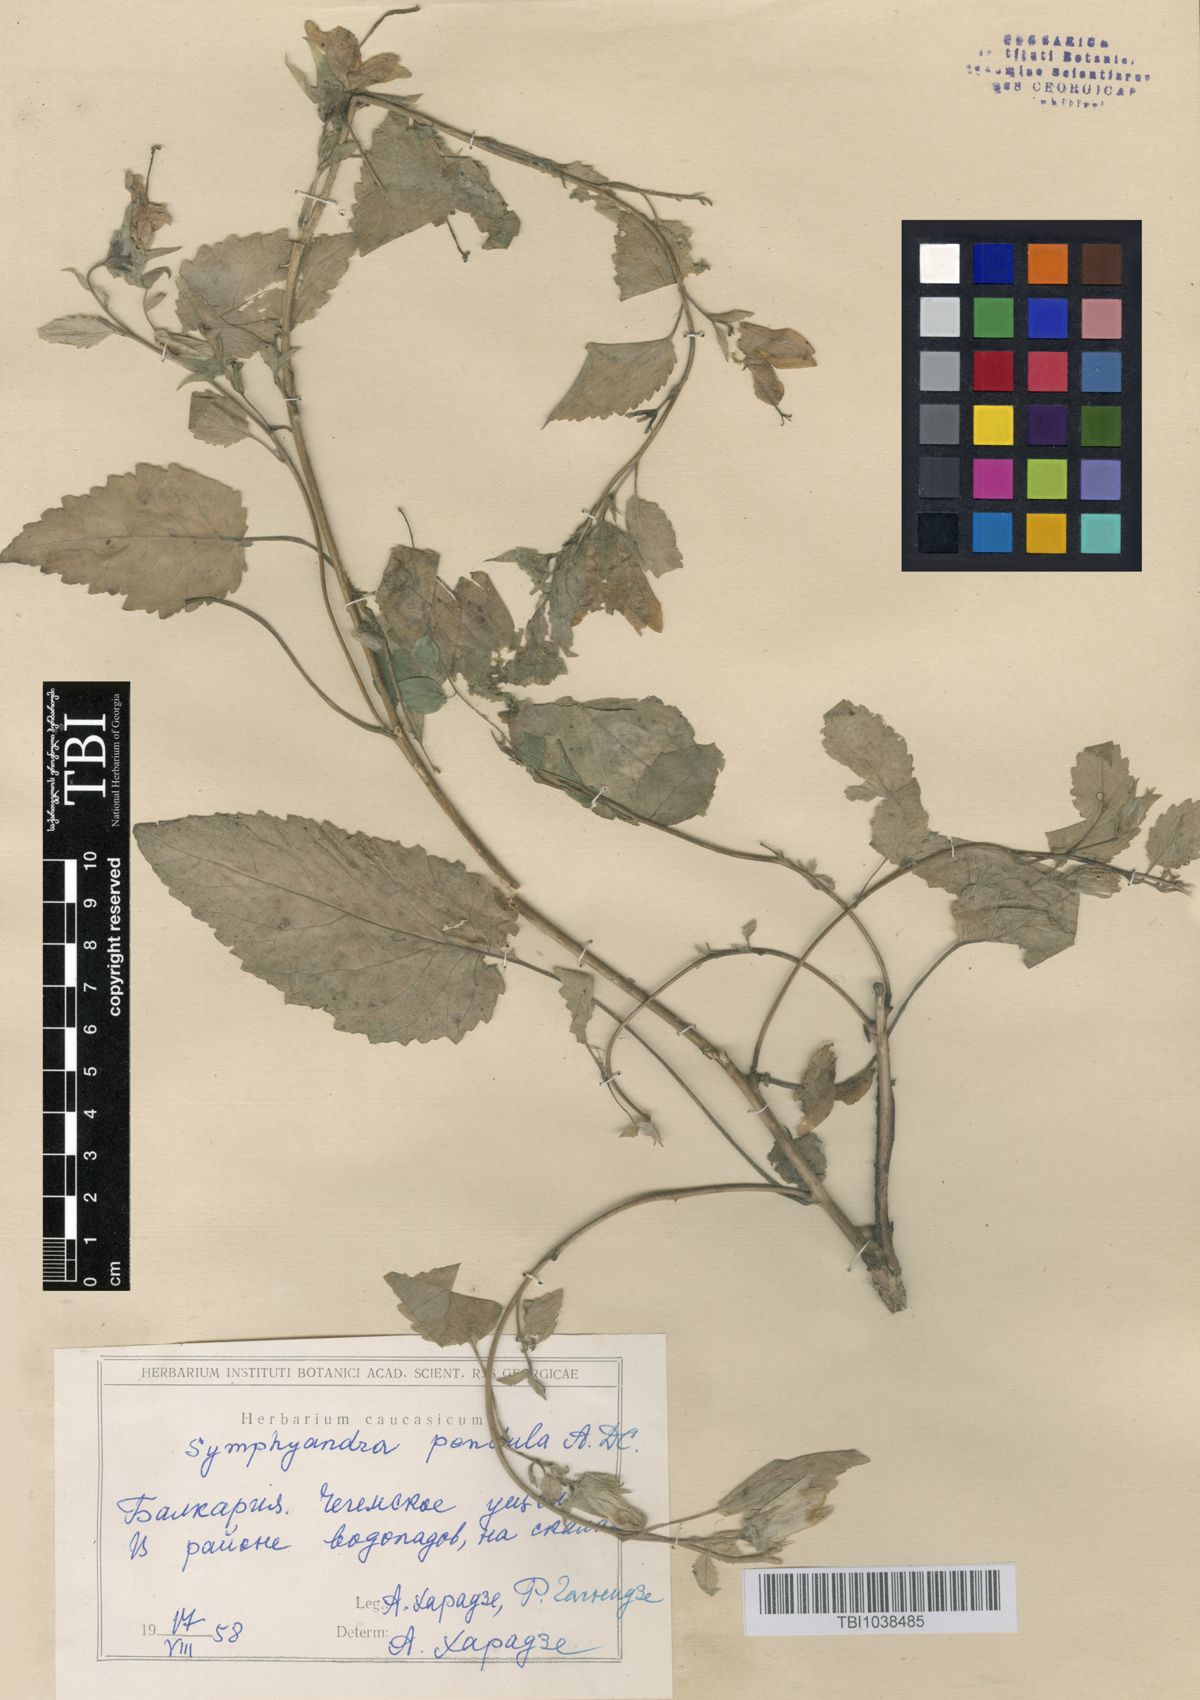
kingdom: Plantae
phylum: Tracheophyta
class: Magnoliopsida
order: Asterales
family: Campanulaceae
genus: Campanula
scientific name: Campanula pendula
